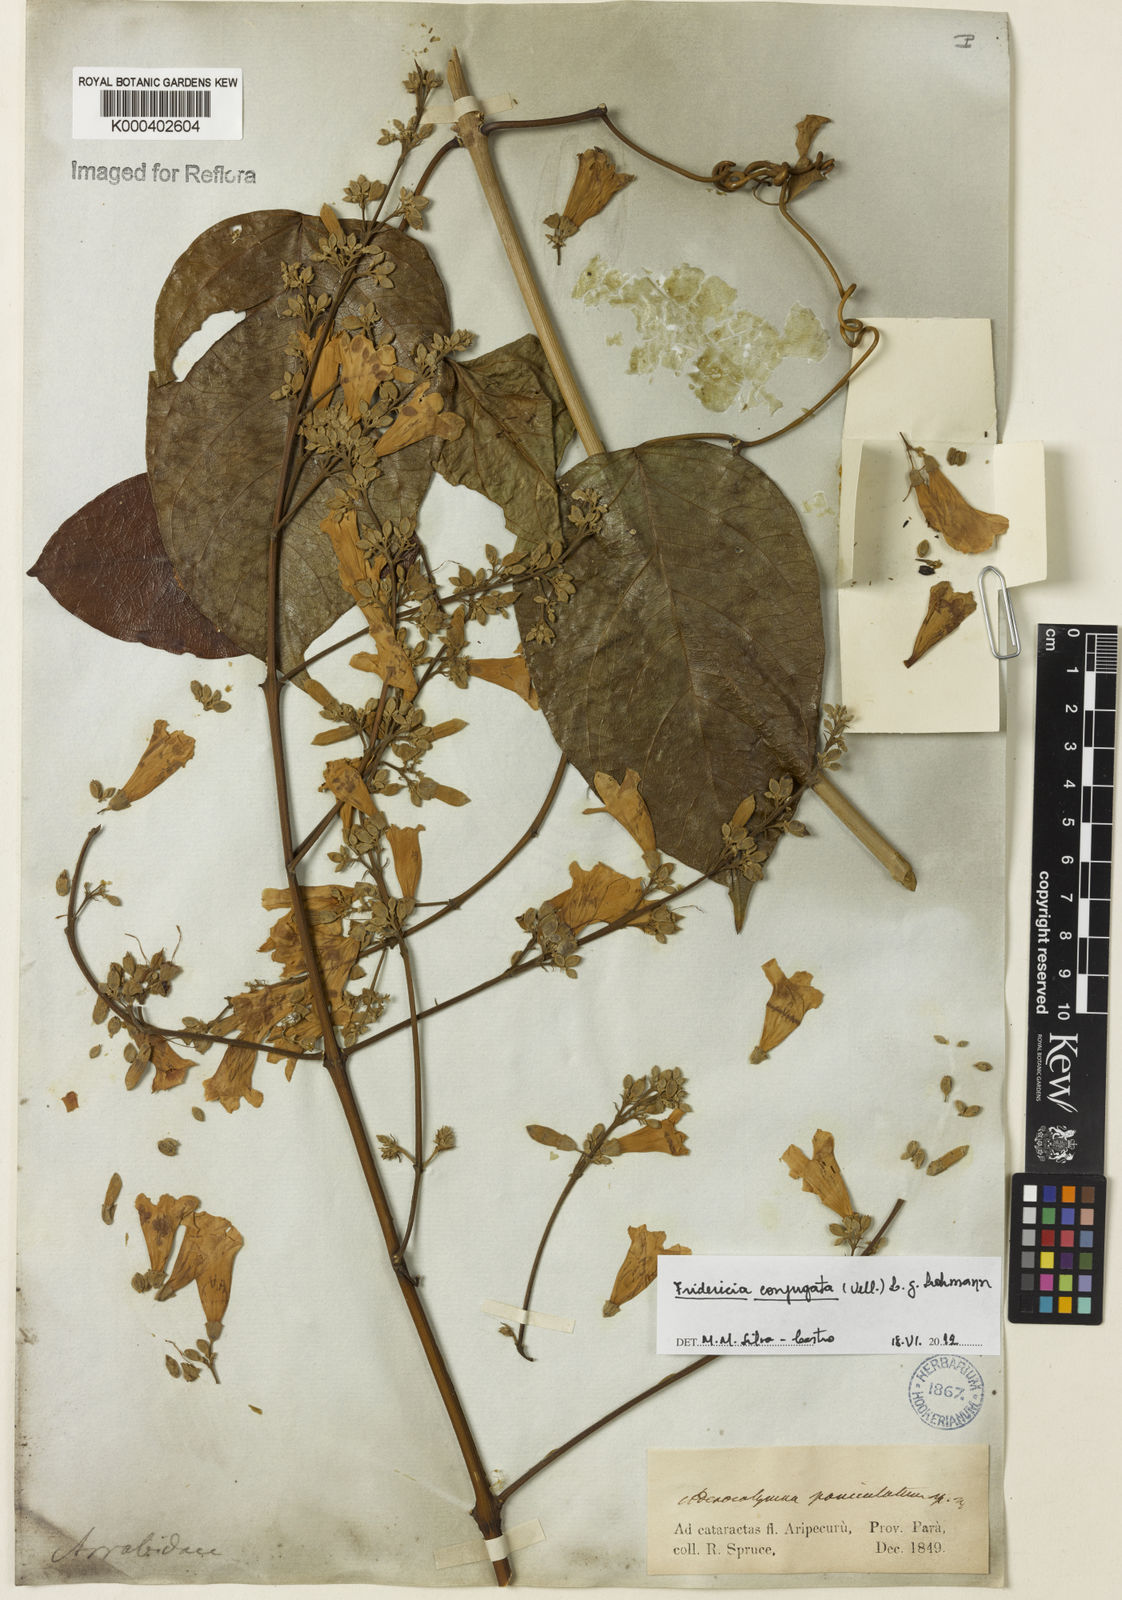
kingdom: Plantae
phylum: Tracheophyta
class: Magnoliopsida
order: Lamiales
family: Bignoniaceae
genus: Fridericia
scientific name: Fridericia conjugata
